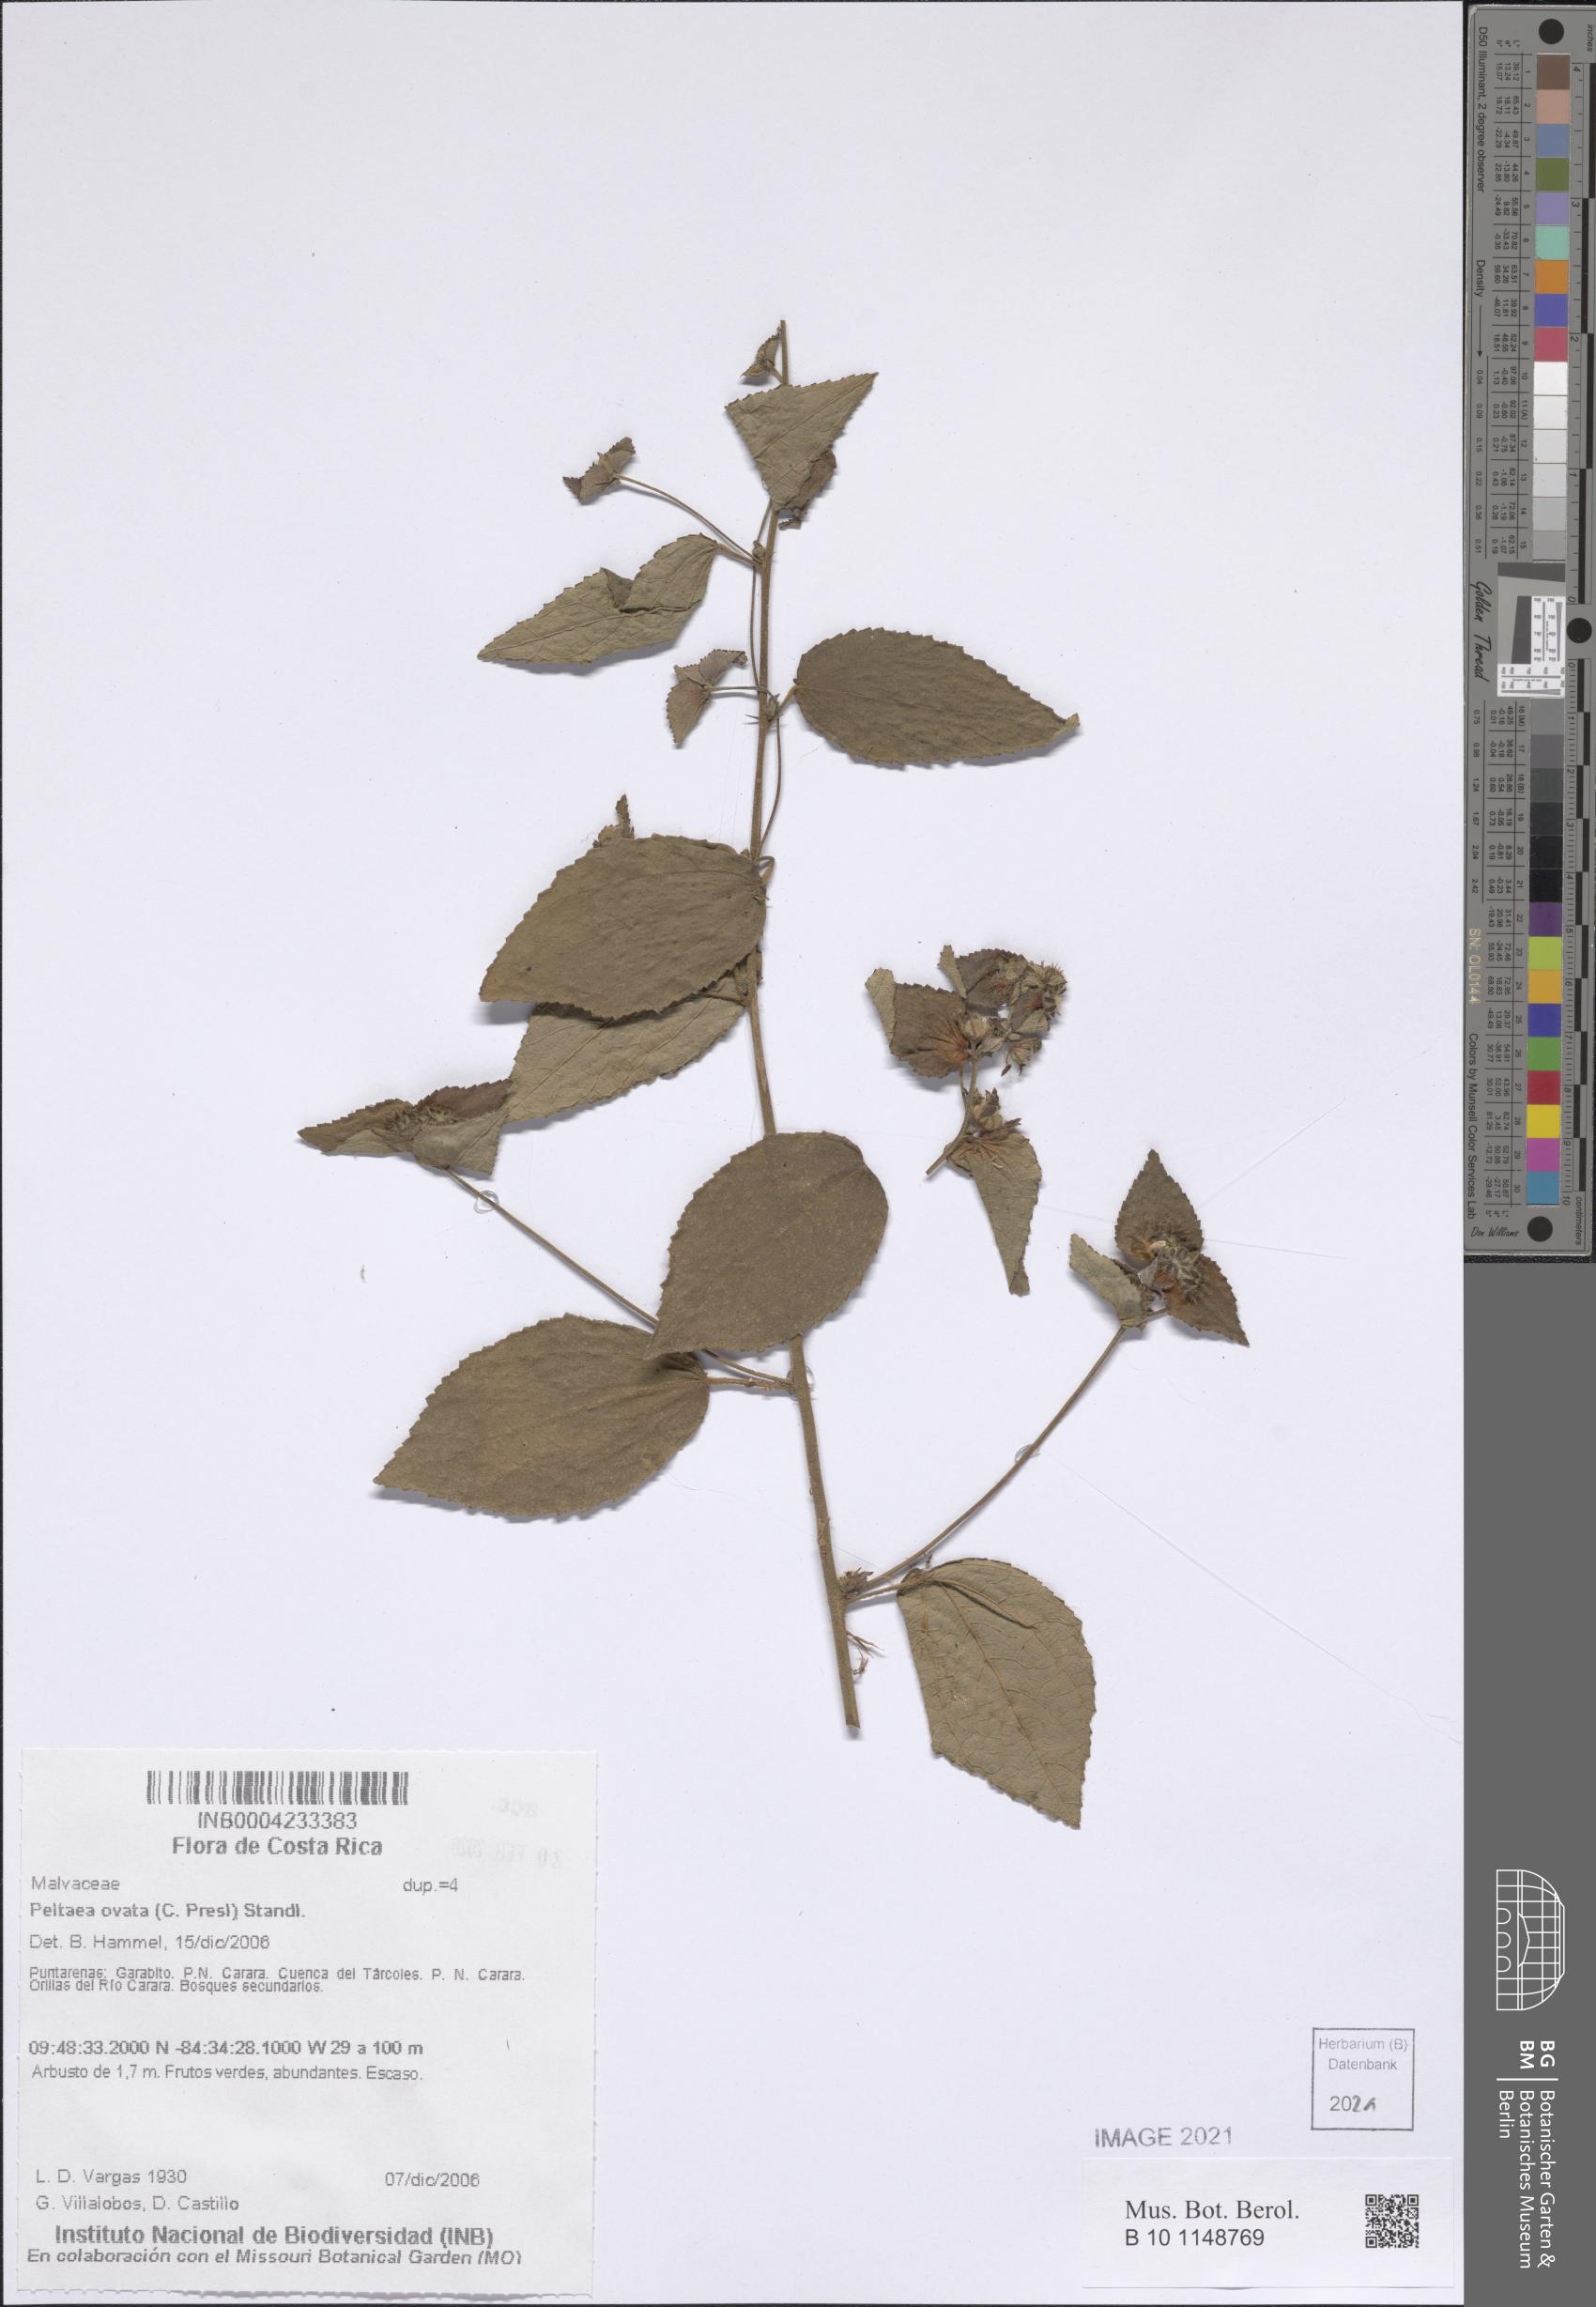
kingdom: Plantae
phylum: Tracheophyta
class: Magnoliopsida
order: Malvales
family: Malvaceae
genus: Peltaea
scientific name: Peltaea ovata
